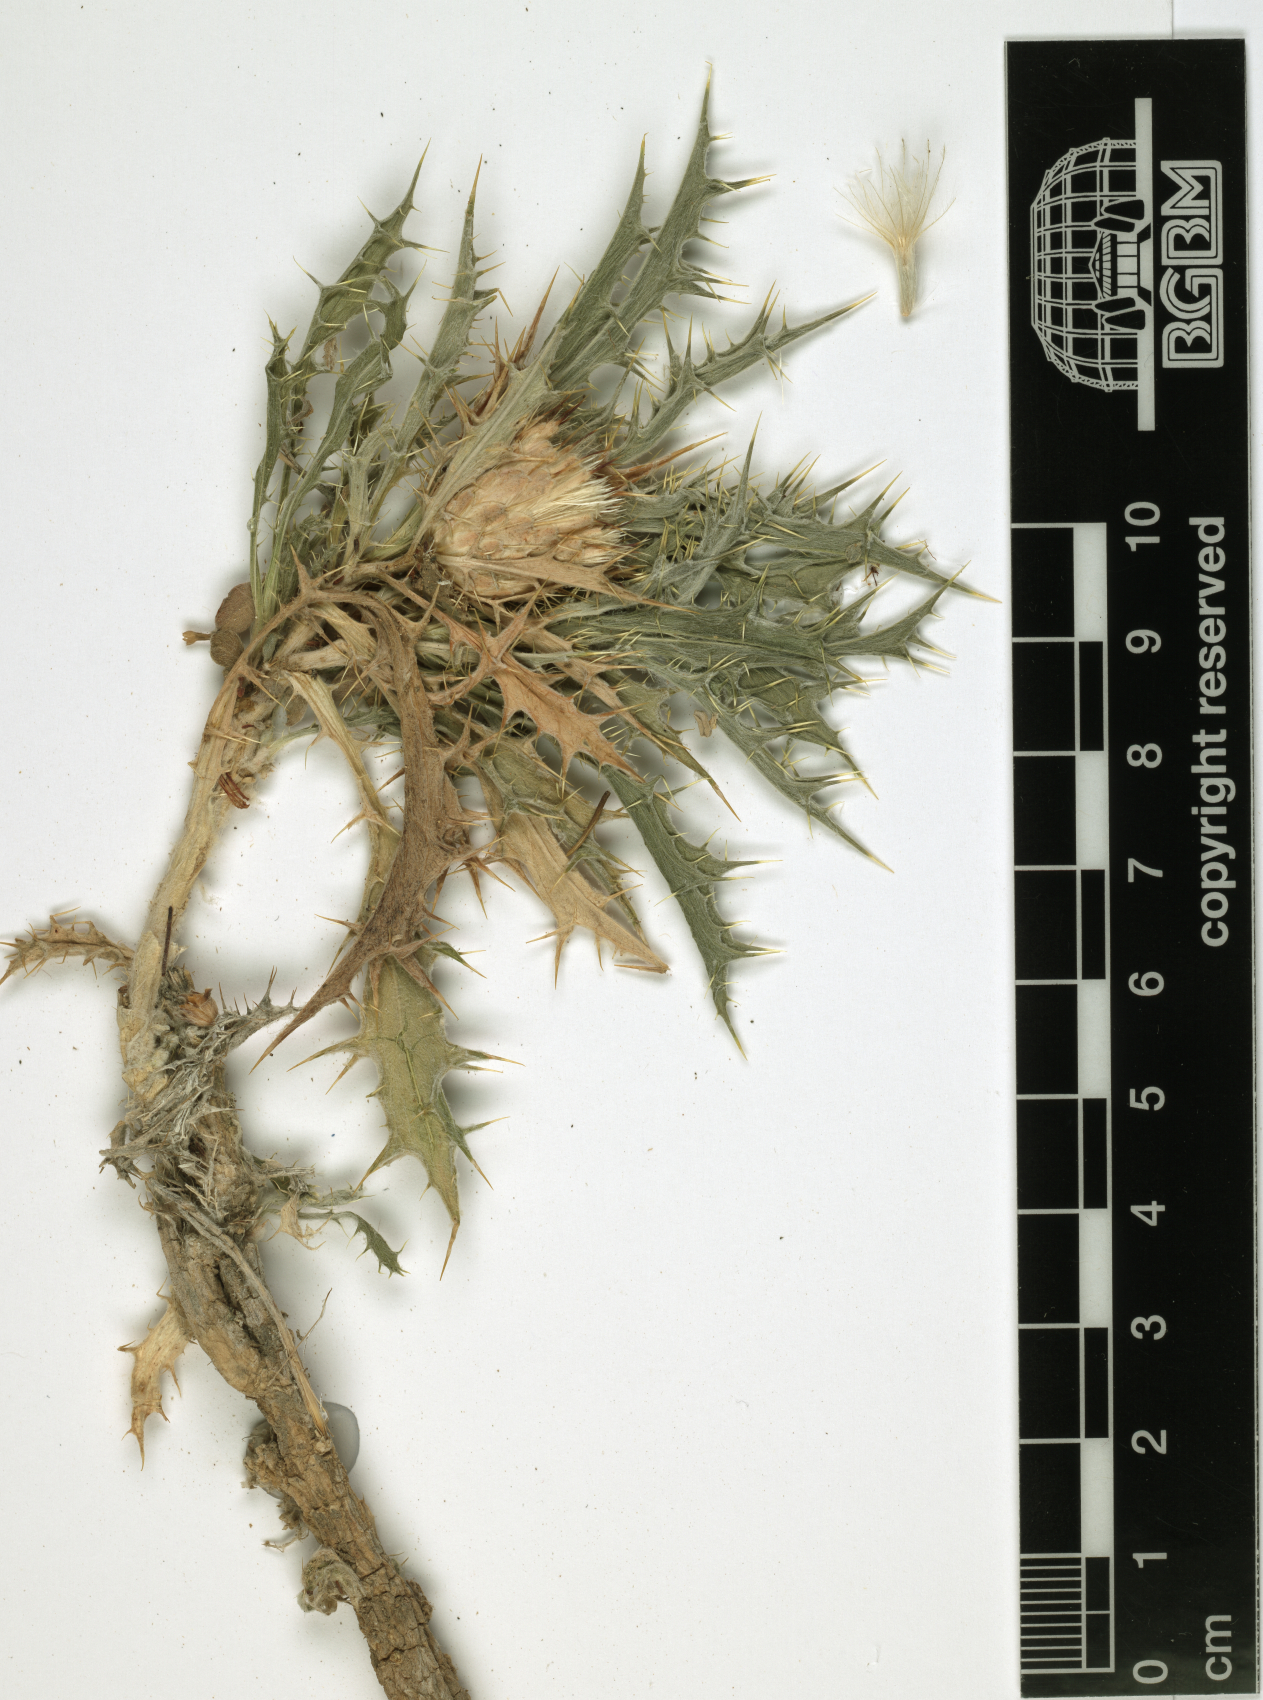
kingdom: Plantae
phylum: Tracheophyta
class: Magnoliopsida
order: Asterales
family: Asteraceae
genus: Atractylis
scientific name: Atractylis kentrophylloides
